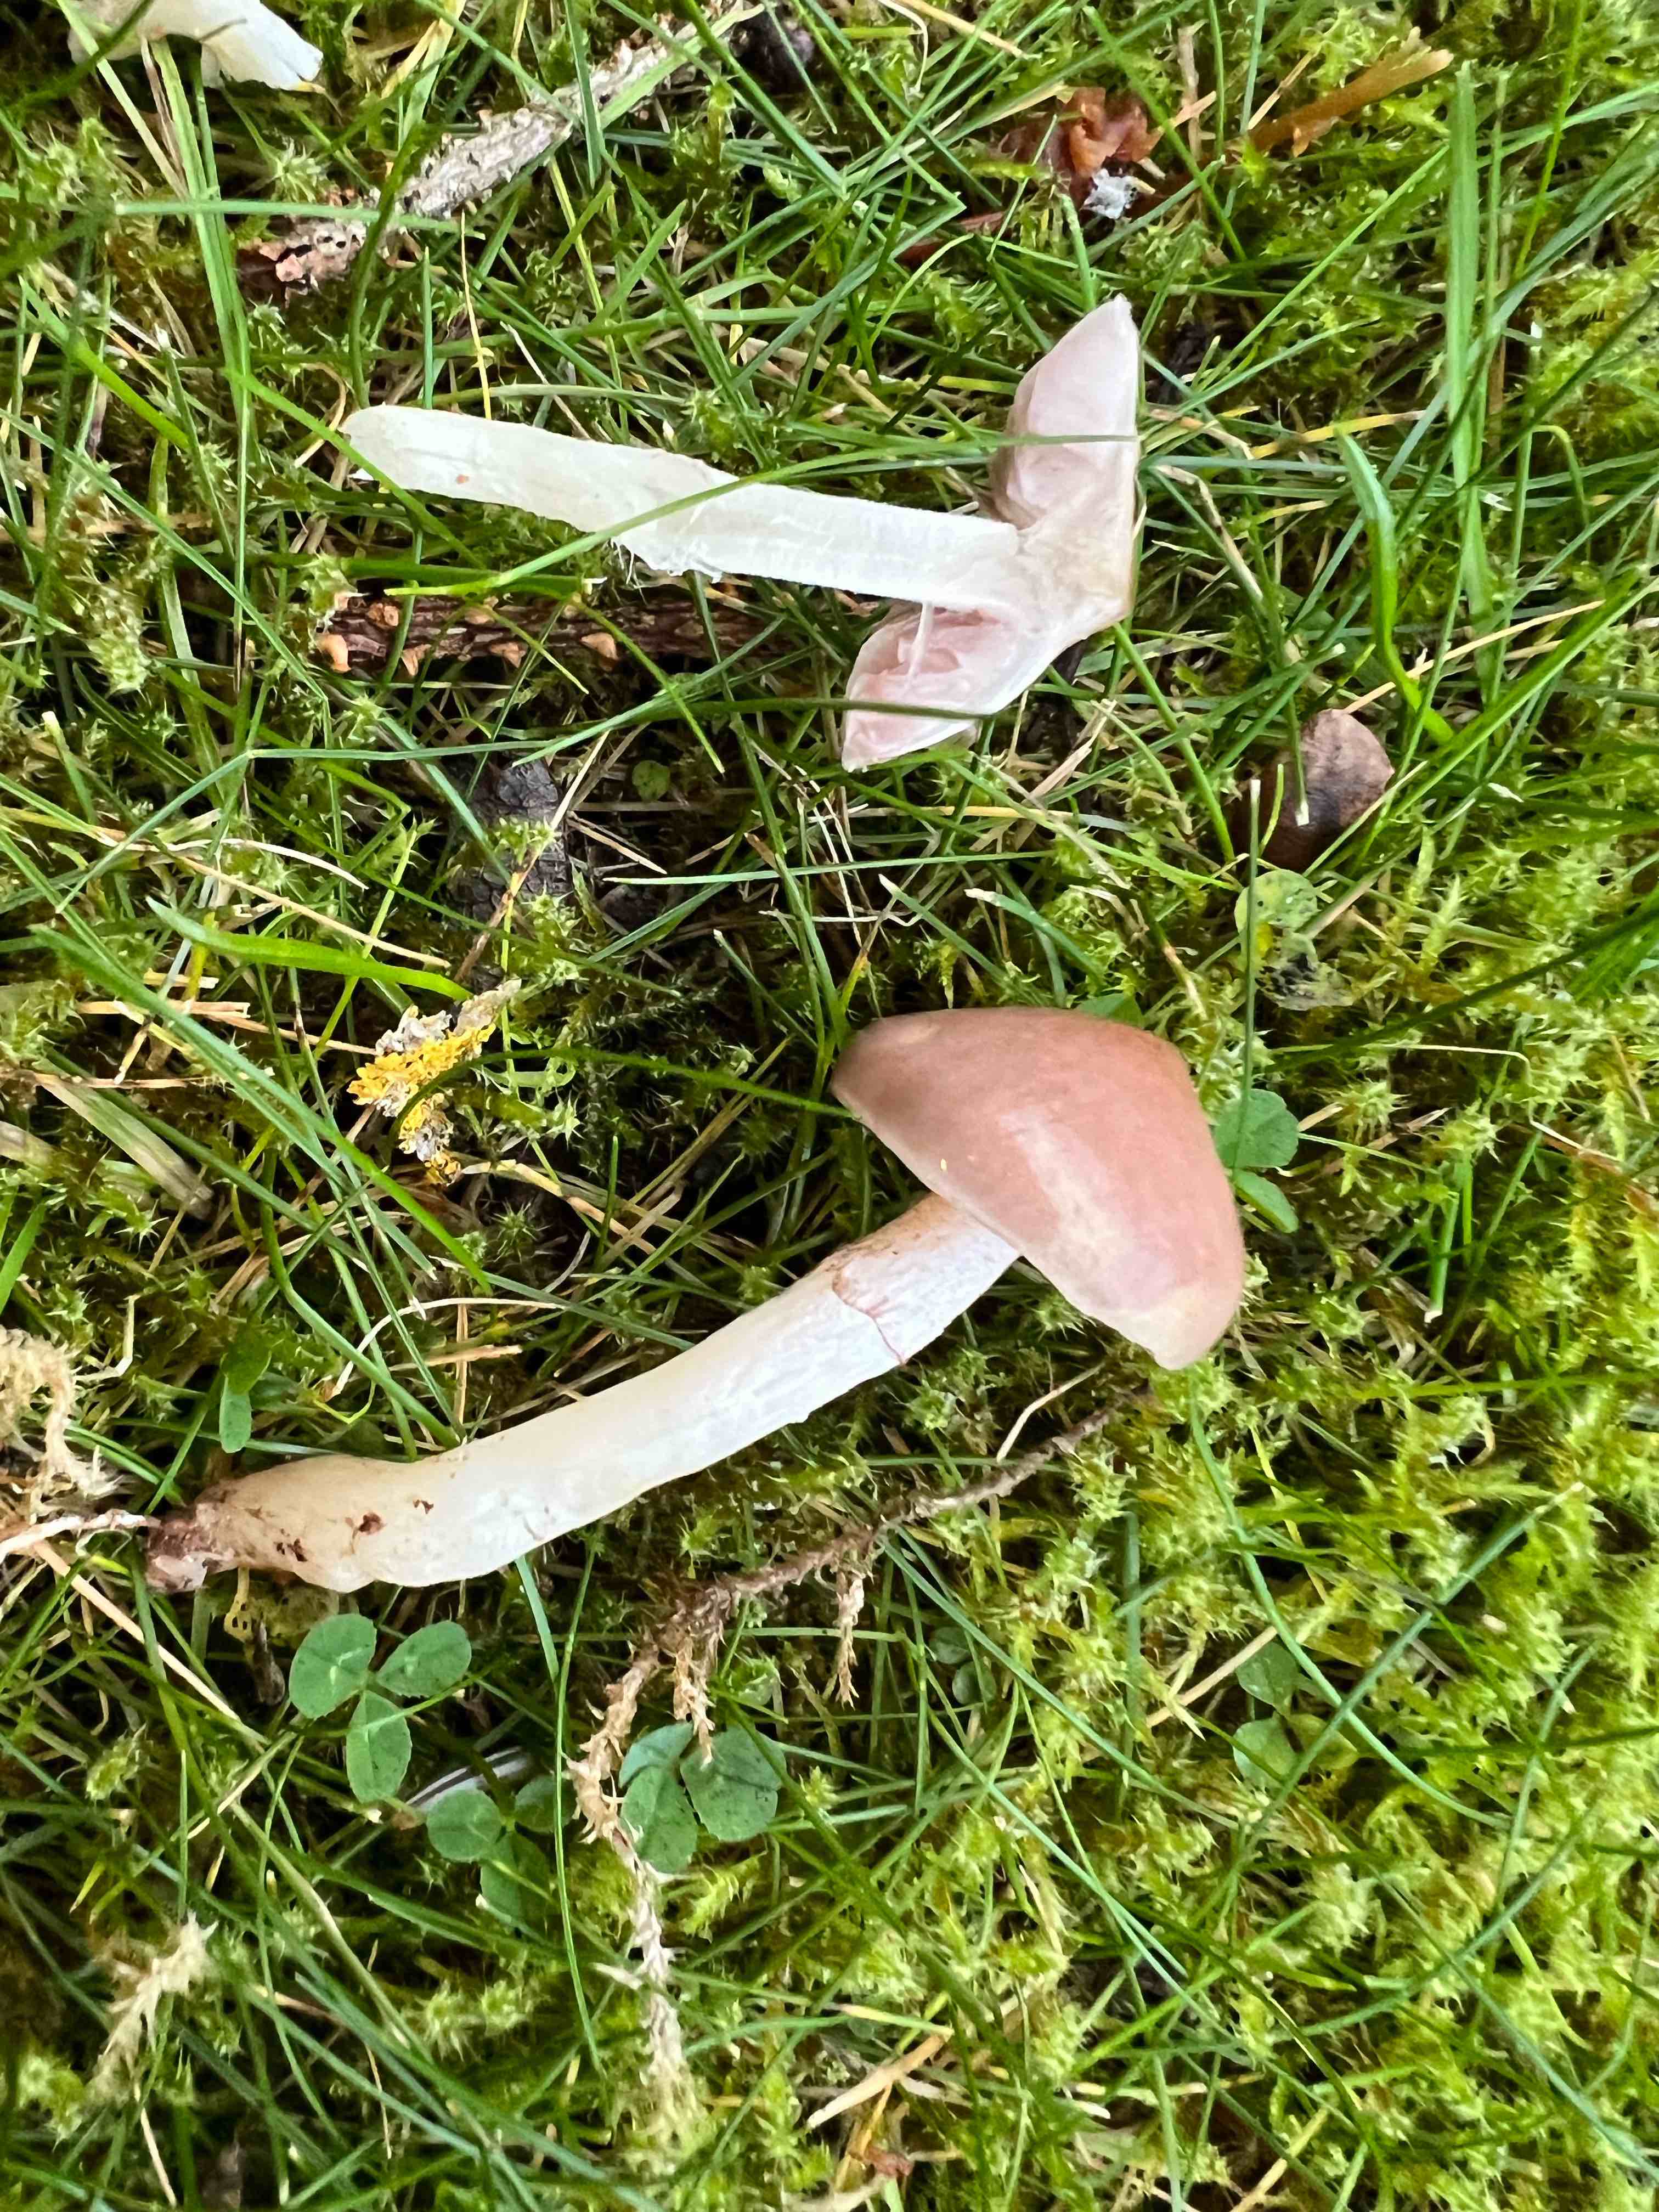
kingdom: Fungi
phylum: Basidiomycota
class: Agaricomycetes
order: Agaricales
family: Strophariaceae
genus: Stropharia
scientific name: Stropharia inuncta
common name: lillabrun bredblad
